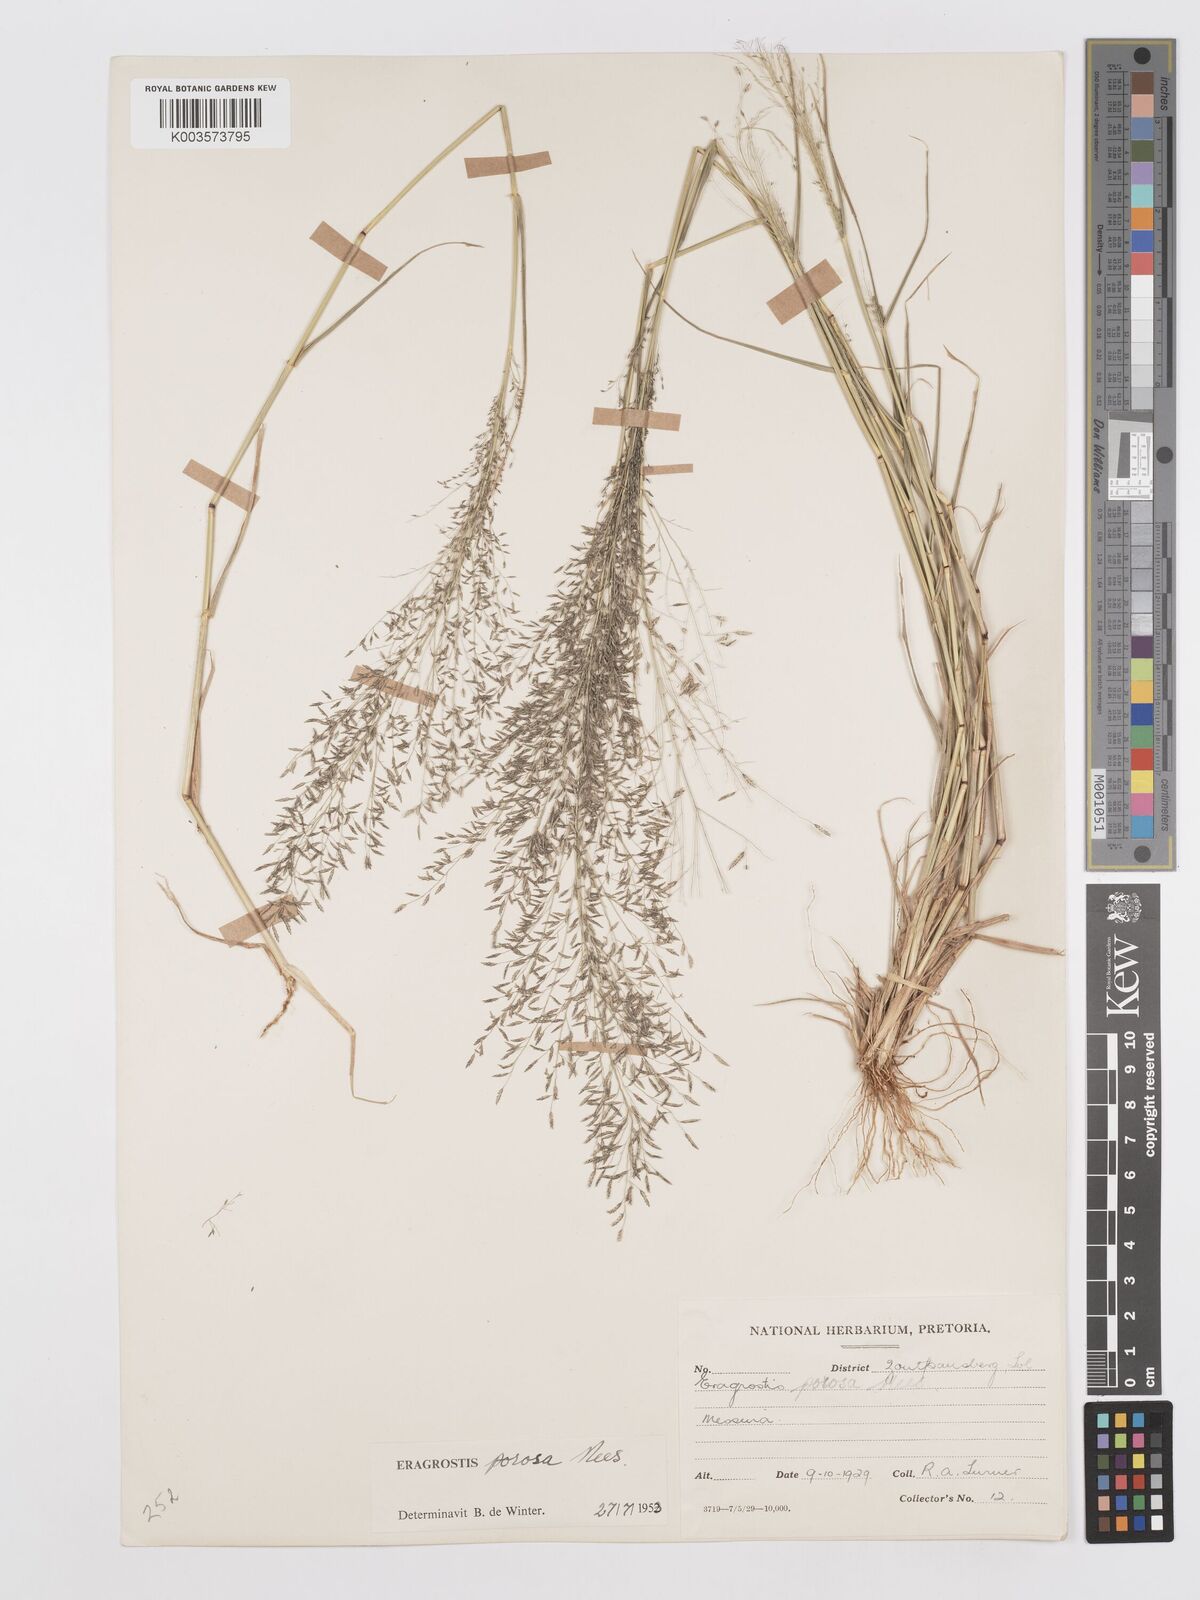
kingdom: Plantae
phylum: Tracheophyta
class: Liliopsida
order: Poales
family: Poaceae
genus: Eragrostis
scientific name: Eragrostis porosa
